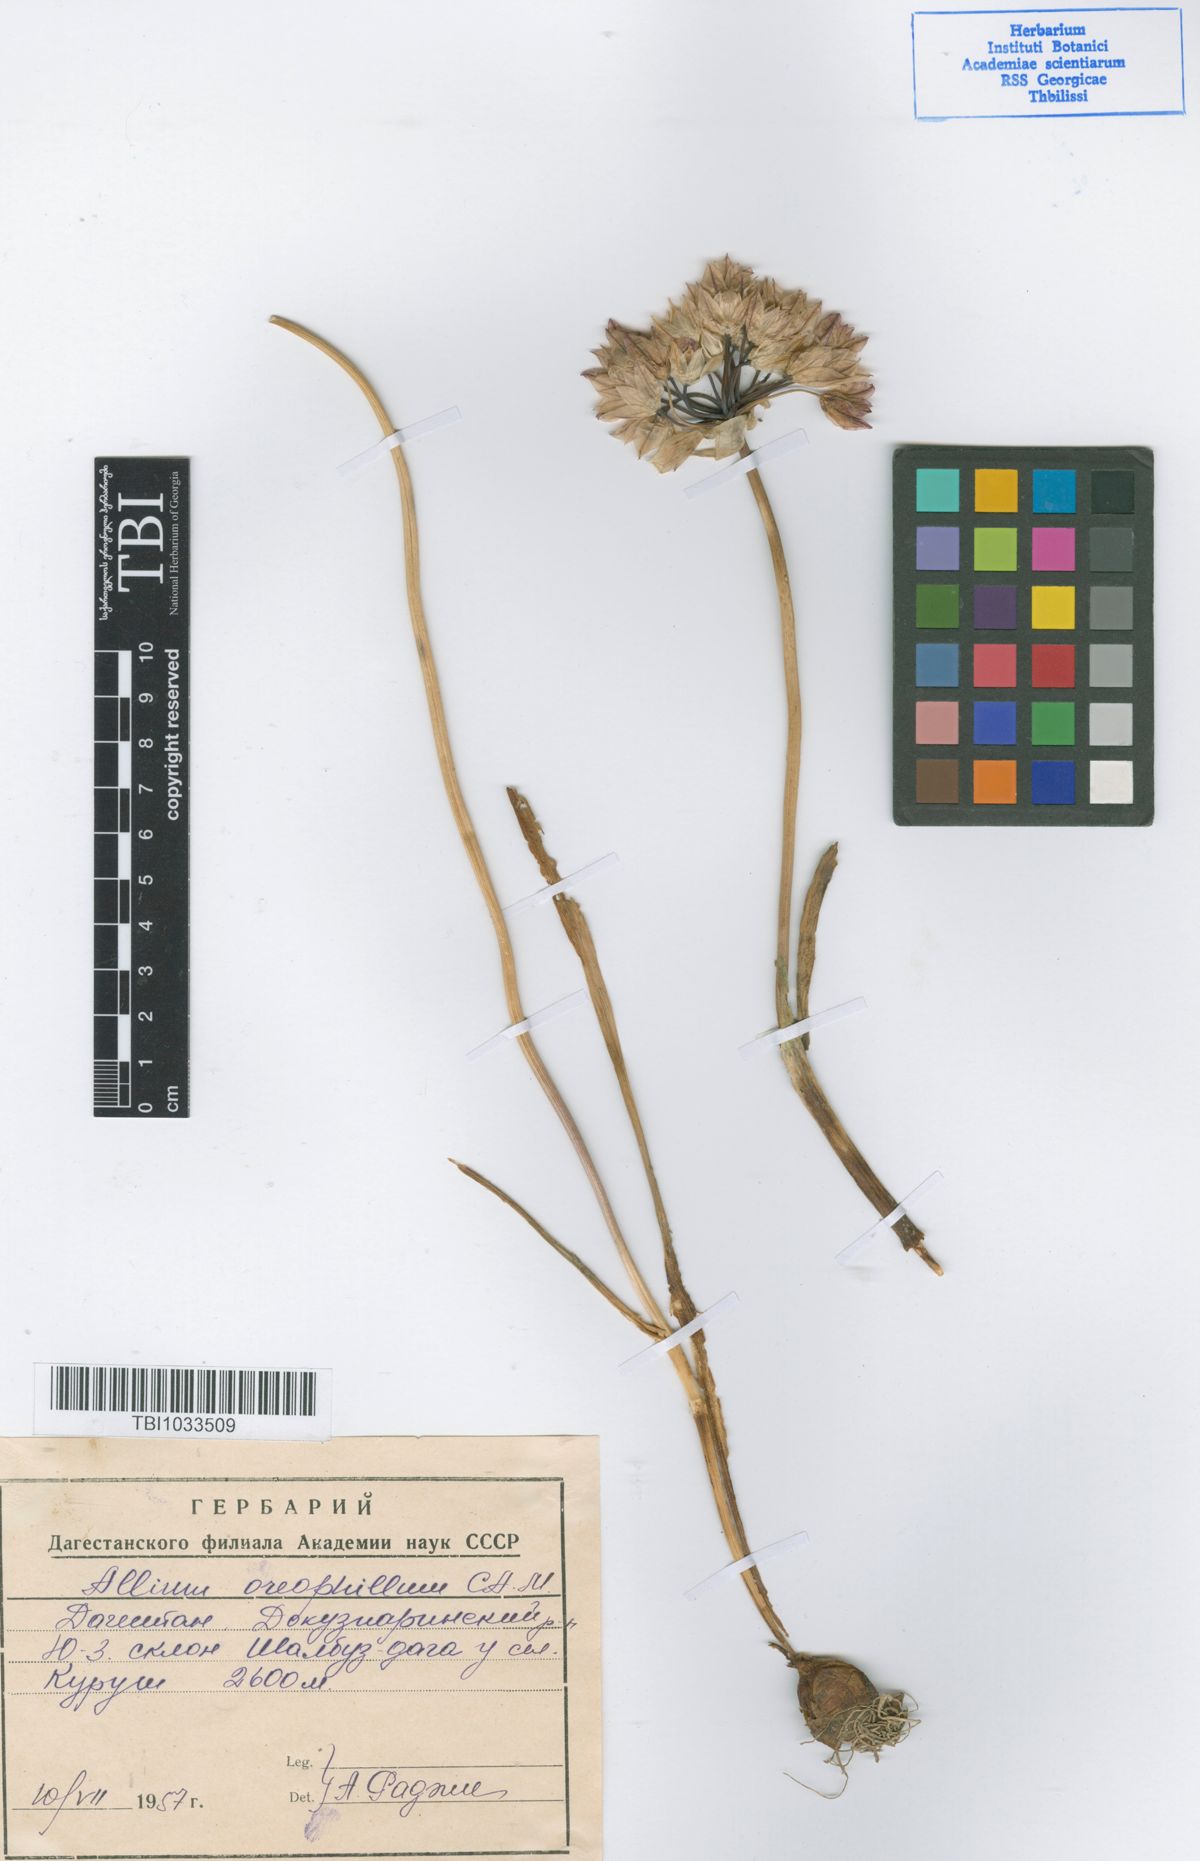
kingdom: Plantae
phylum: Tracheophyta
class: Liliopsida
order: Asparagales
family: Amaryllidaceae
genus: Allium
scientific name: Allium oreophilum
